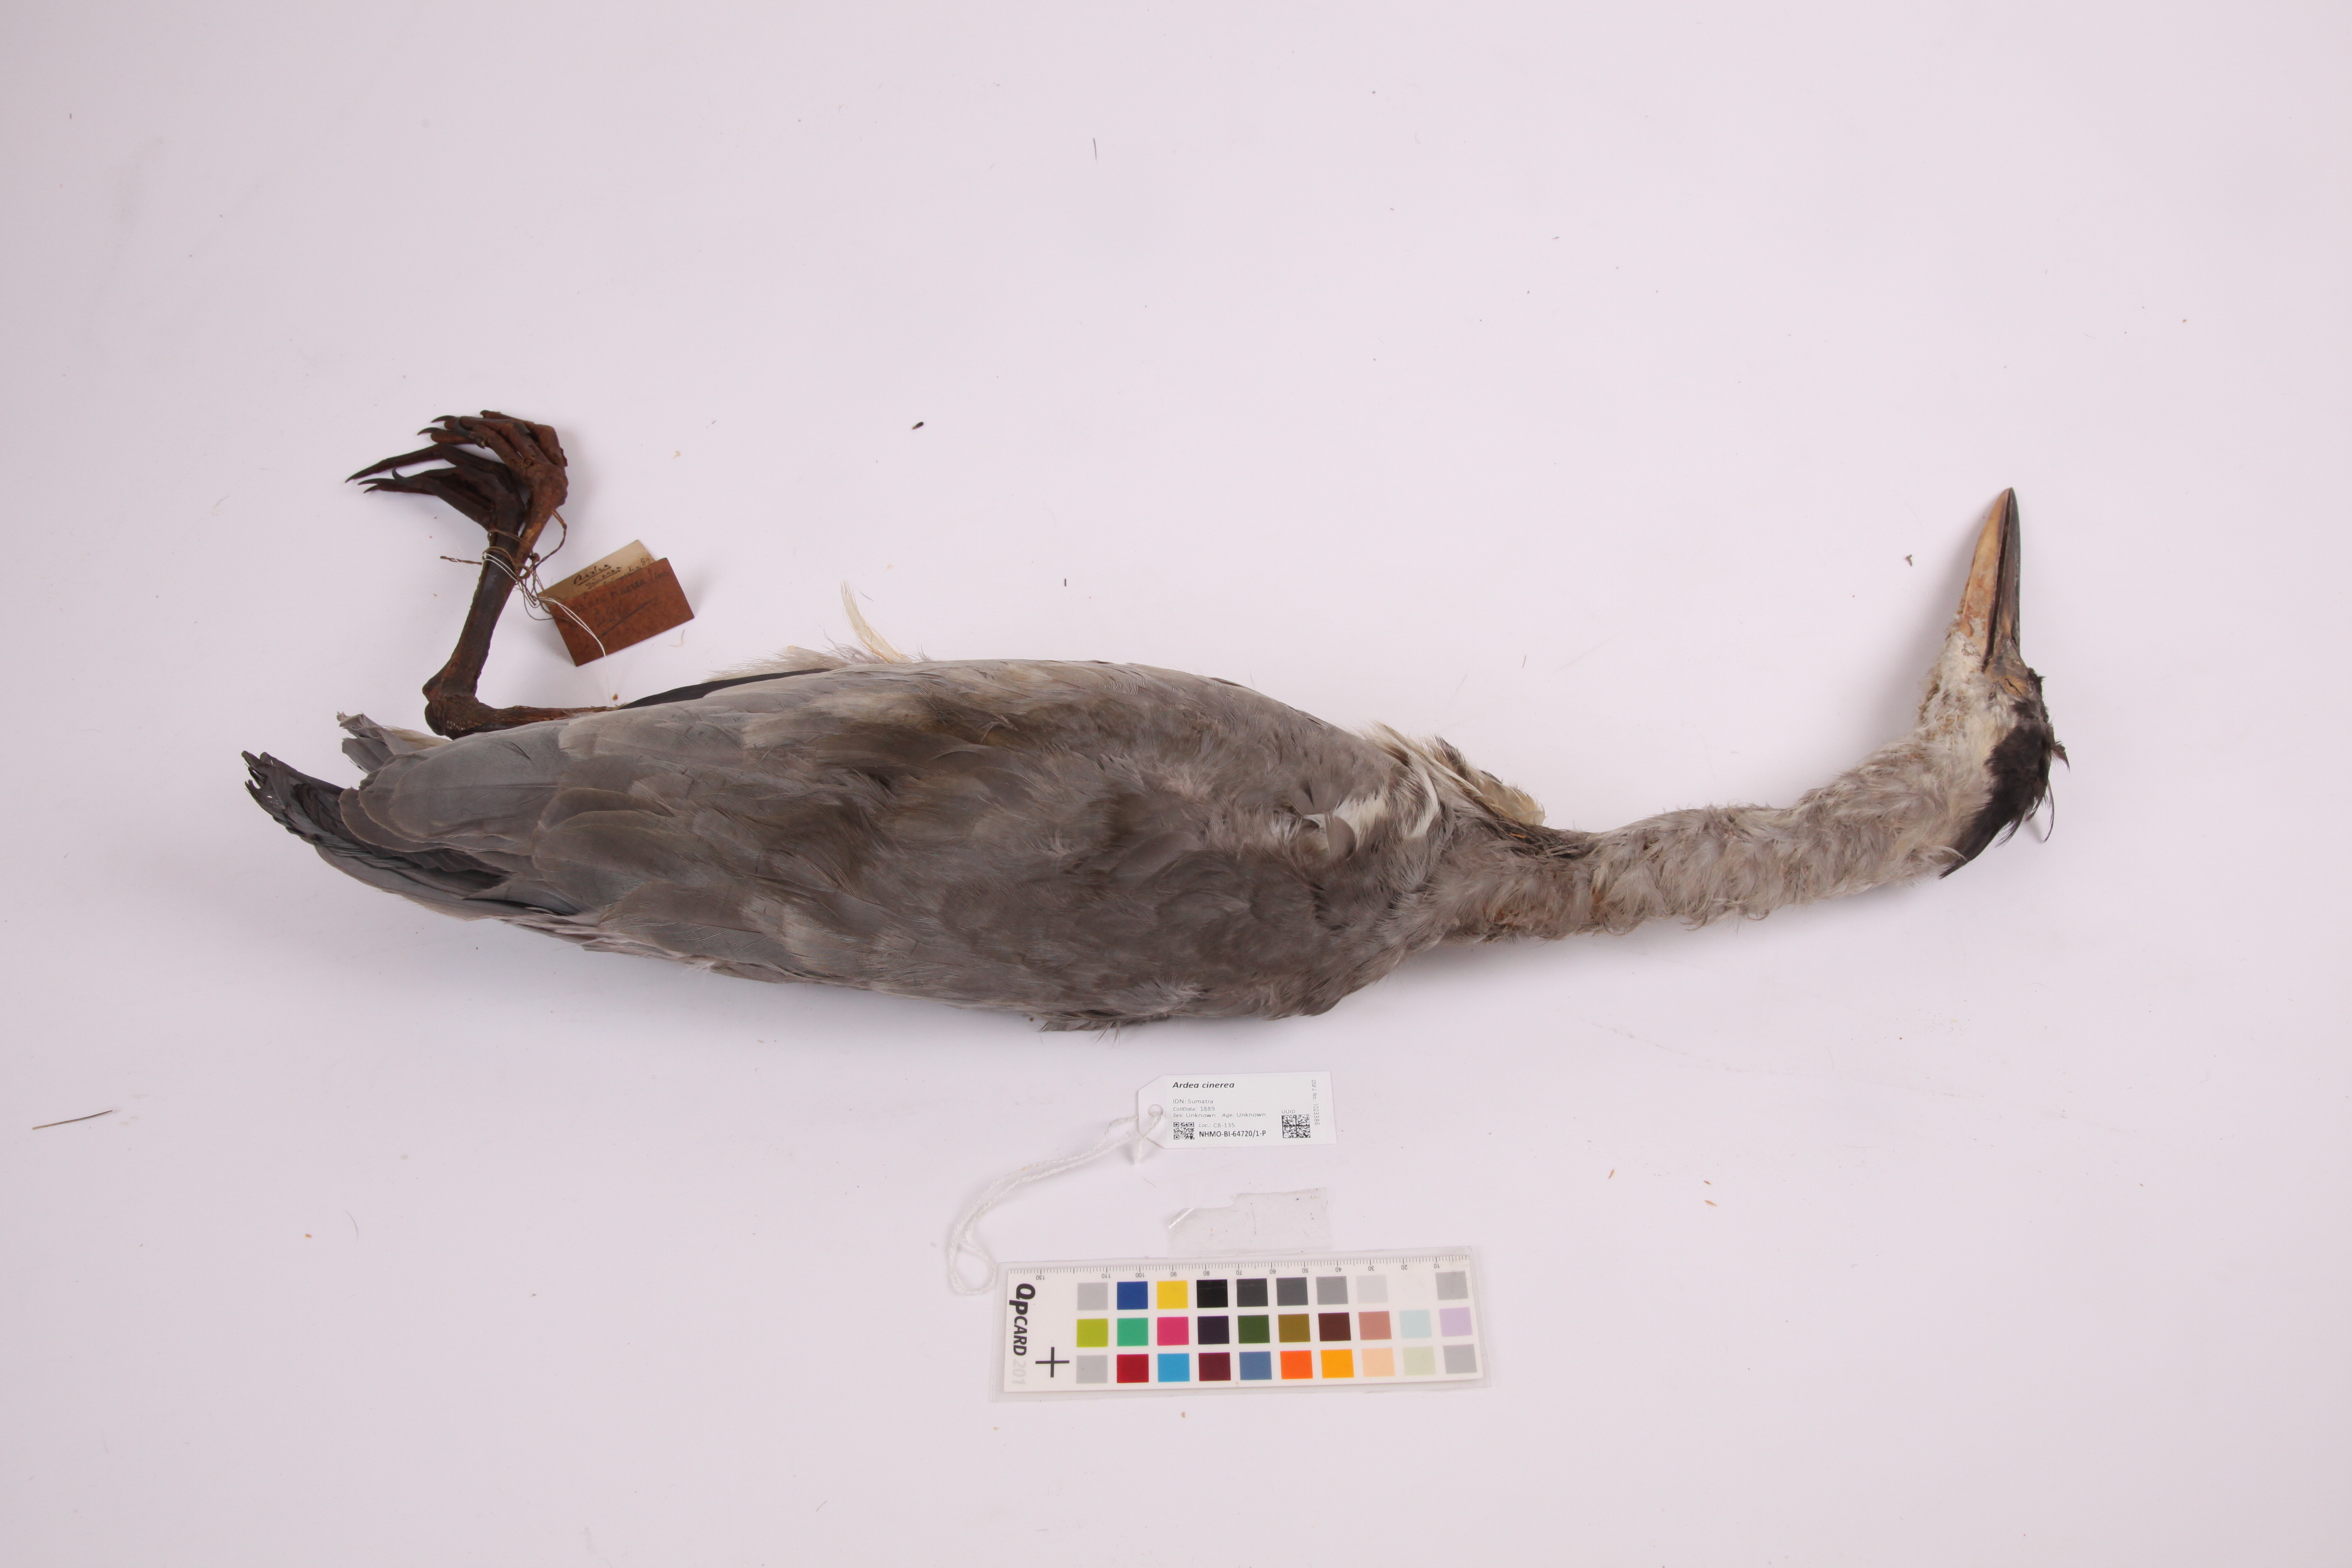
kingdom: Animalia
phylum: Chordata
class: Aves
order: Pelecaniformes
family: Ardeidae
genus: Ardea
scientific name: Ardea cinerea
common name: Grey heron
